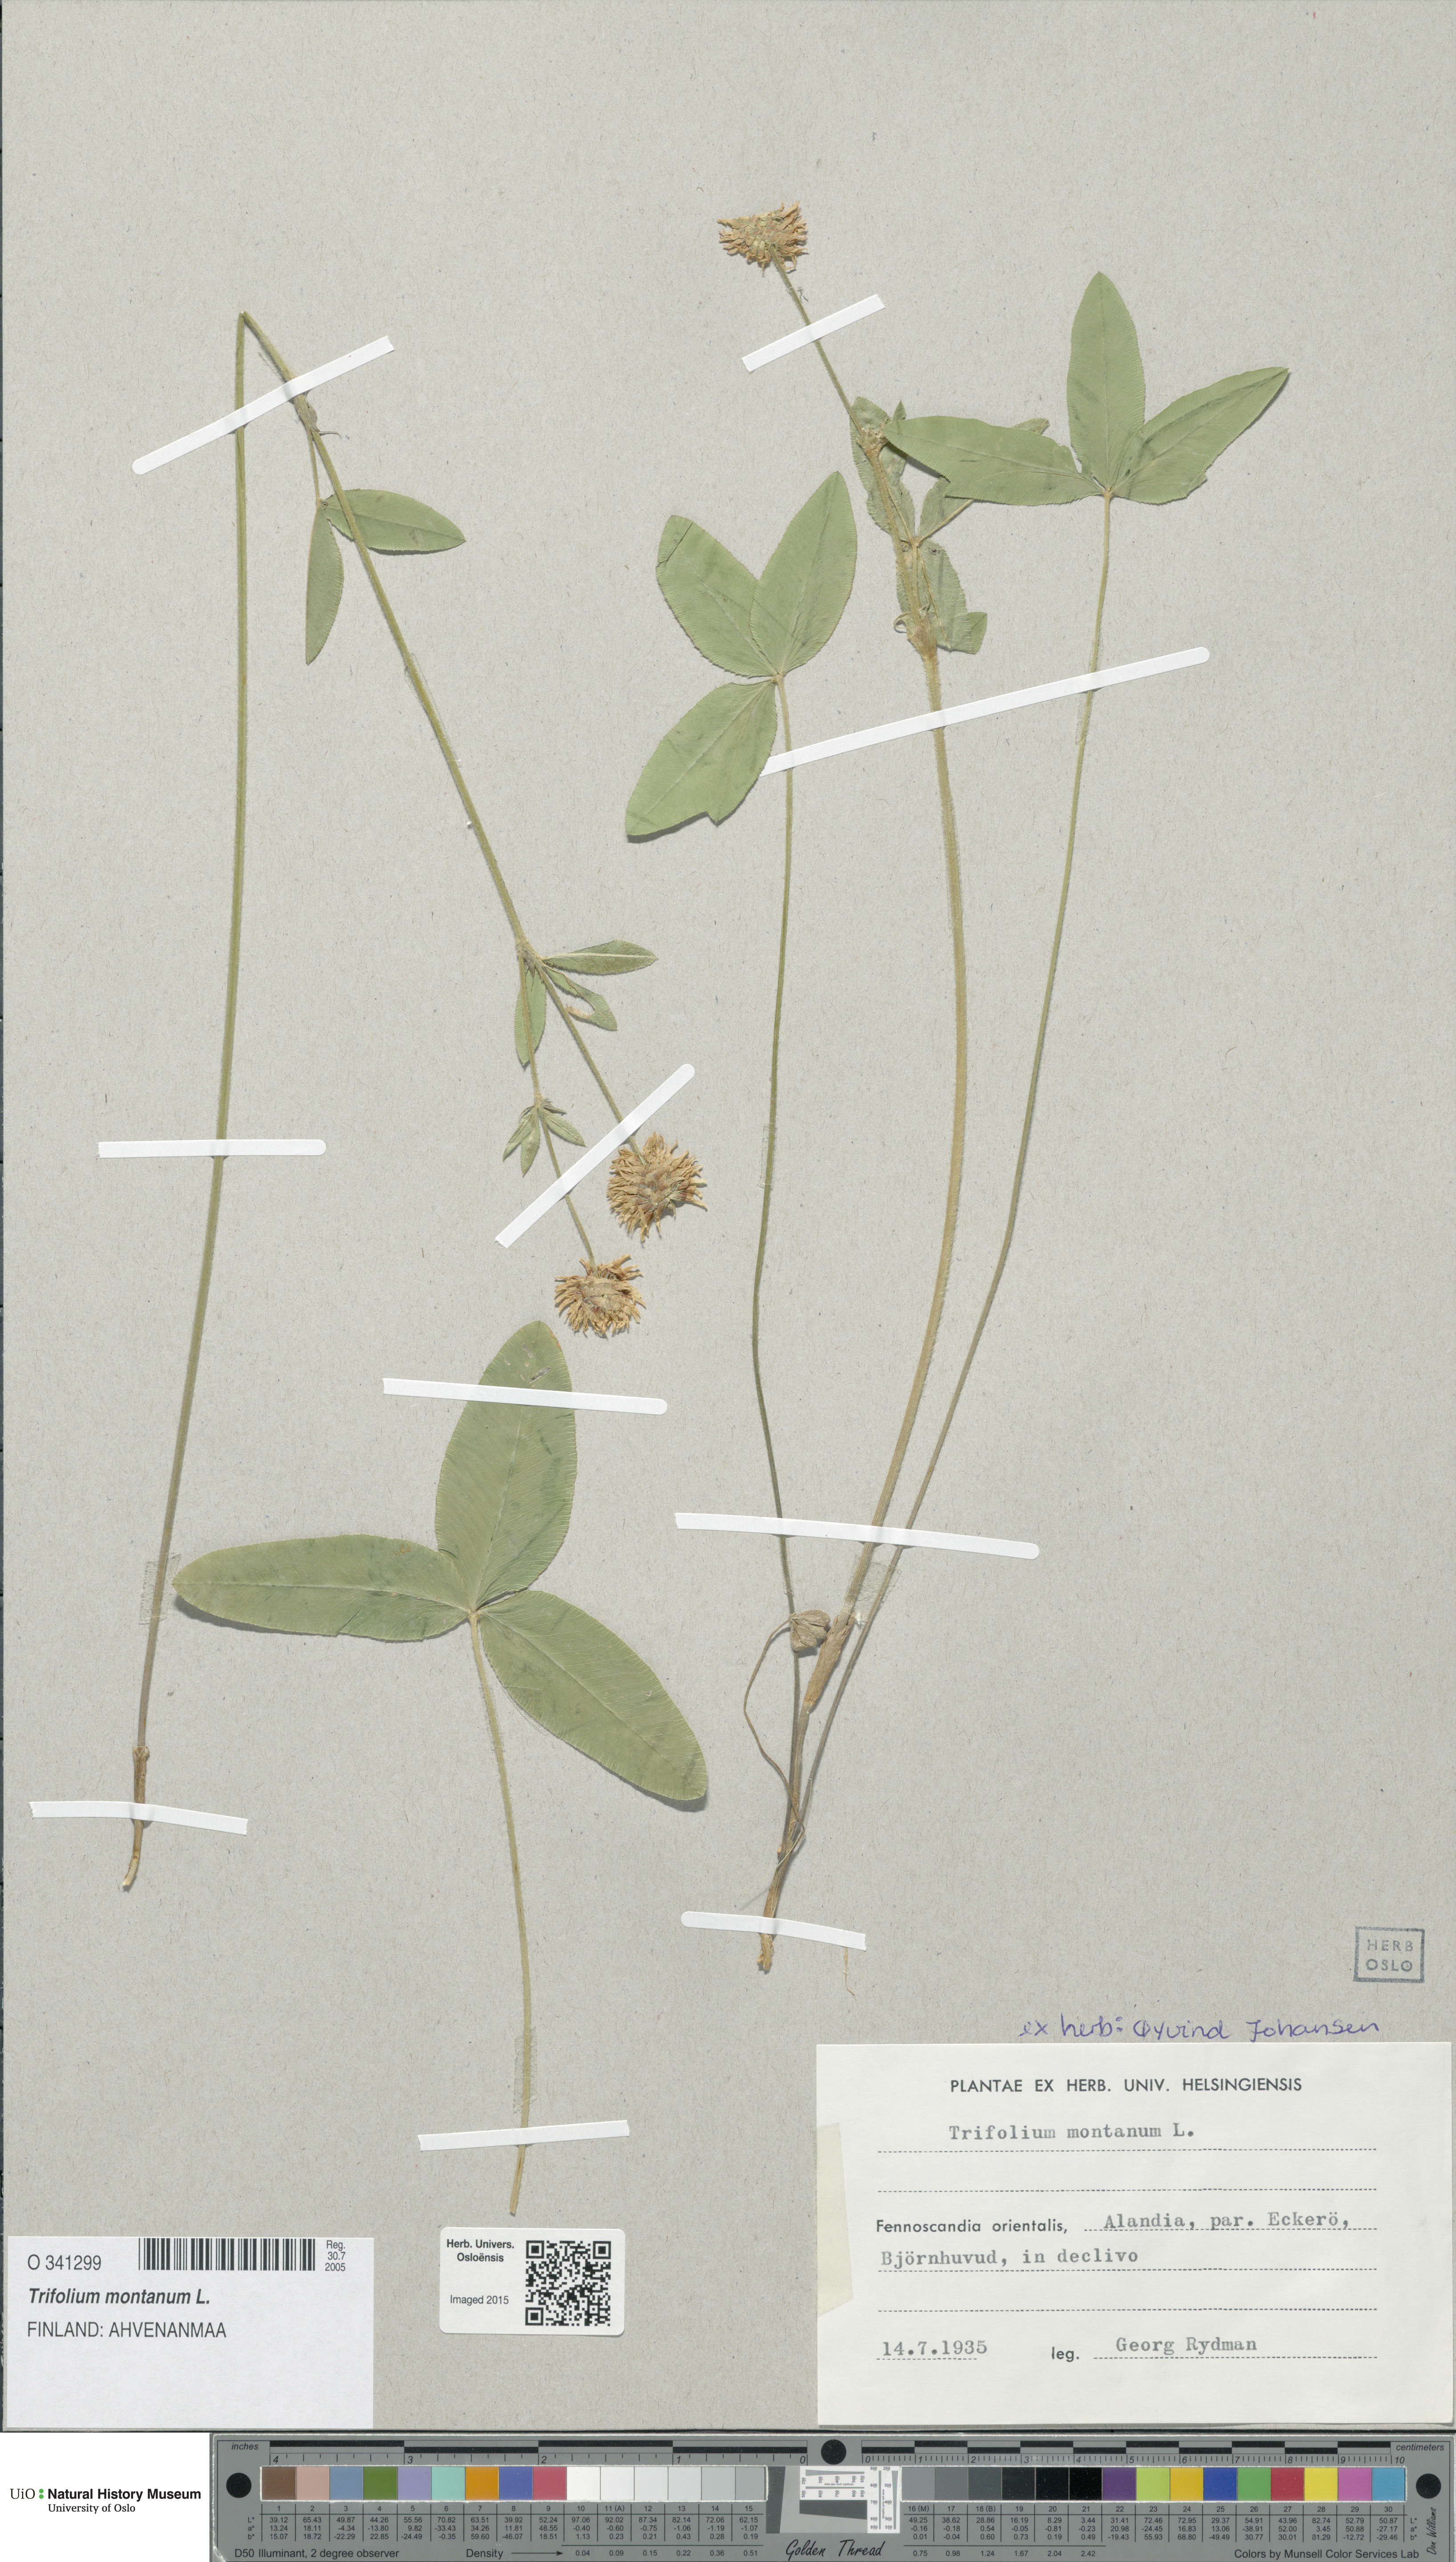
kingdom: Plantae
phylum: Tracheophyta
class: Magnoliopsida
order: Fabales
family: Fabaceae
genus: Trifolium
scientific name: Trifolium montanum
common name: Mountain clover
